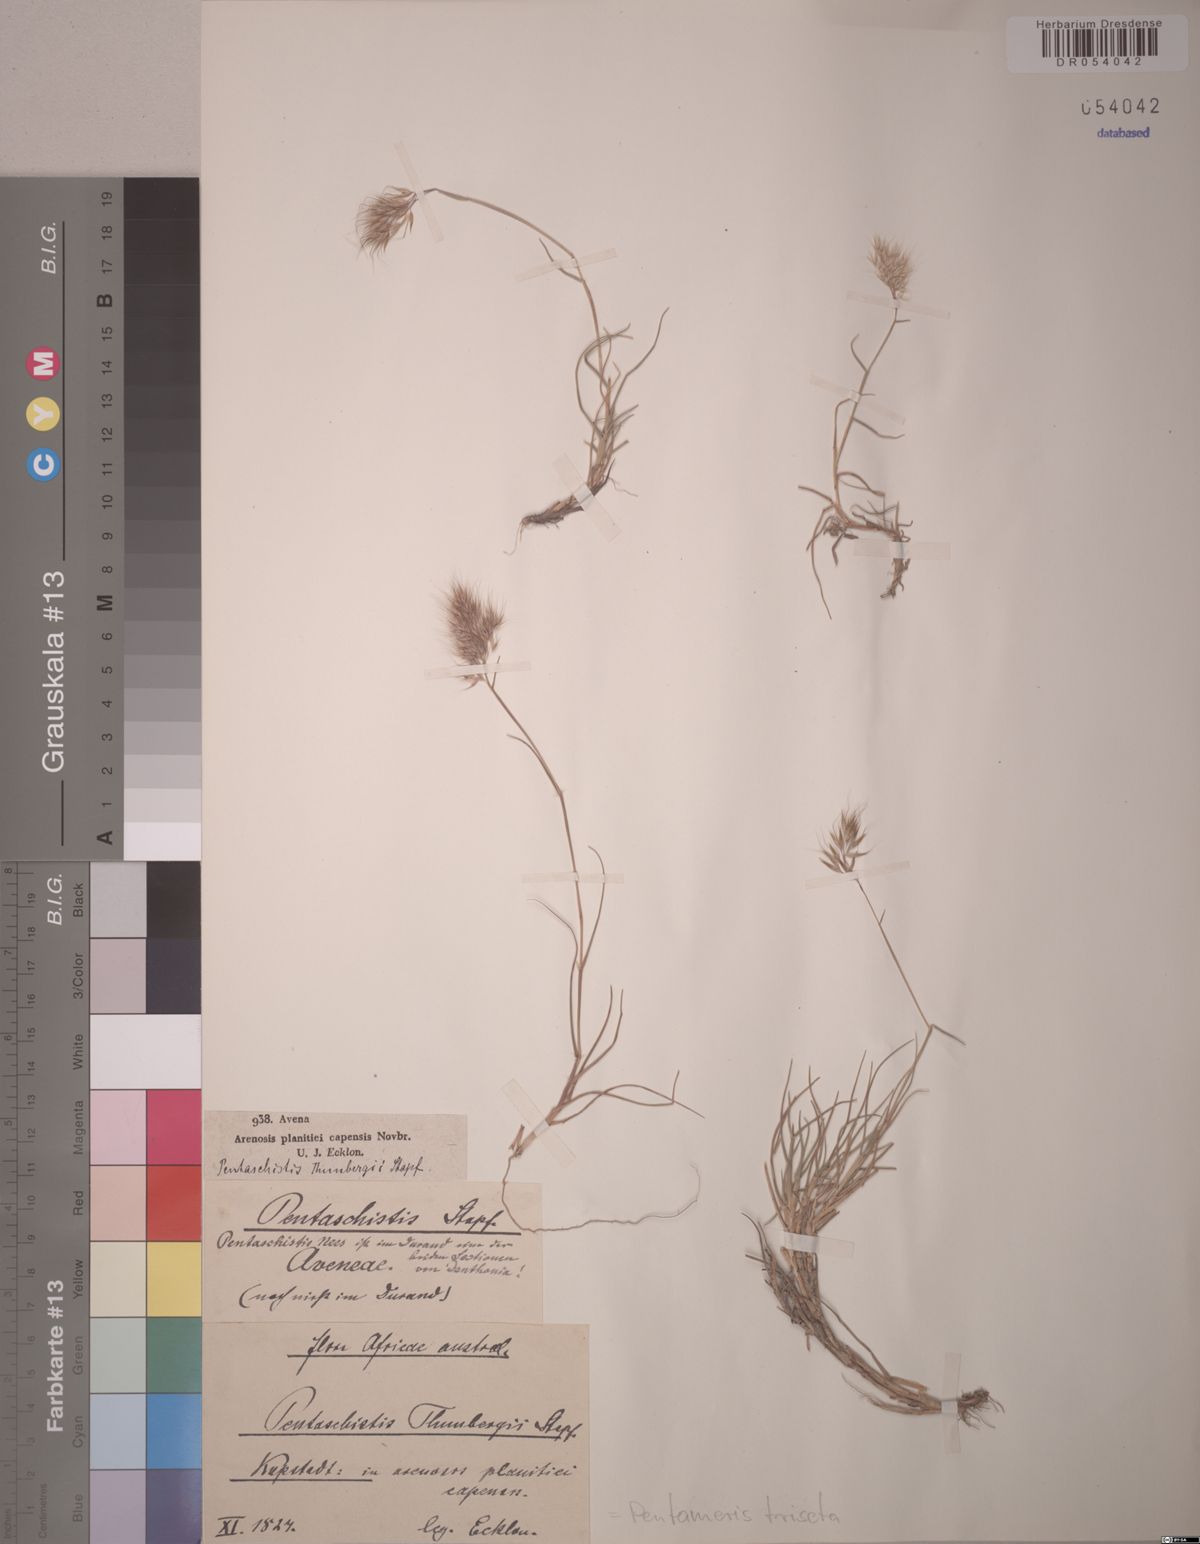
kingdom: Plantae
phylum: Tracheophyta
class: Liliopsida
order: Poales
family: Poaceae
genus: Pentameris
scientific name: Pentameris triseta
